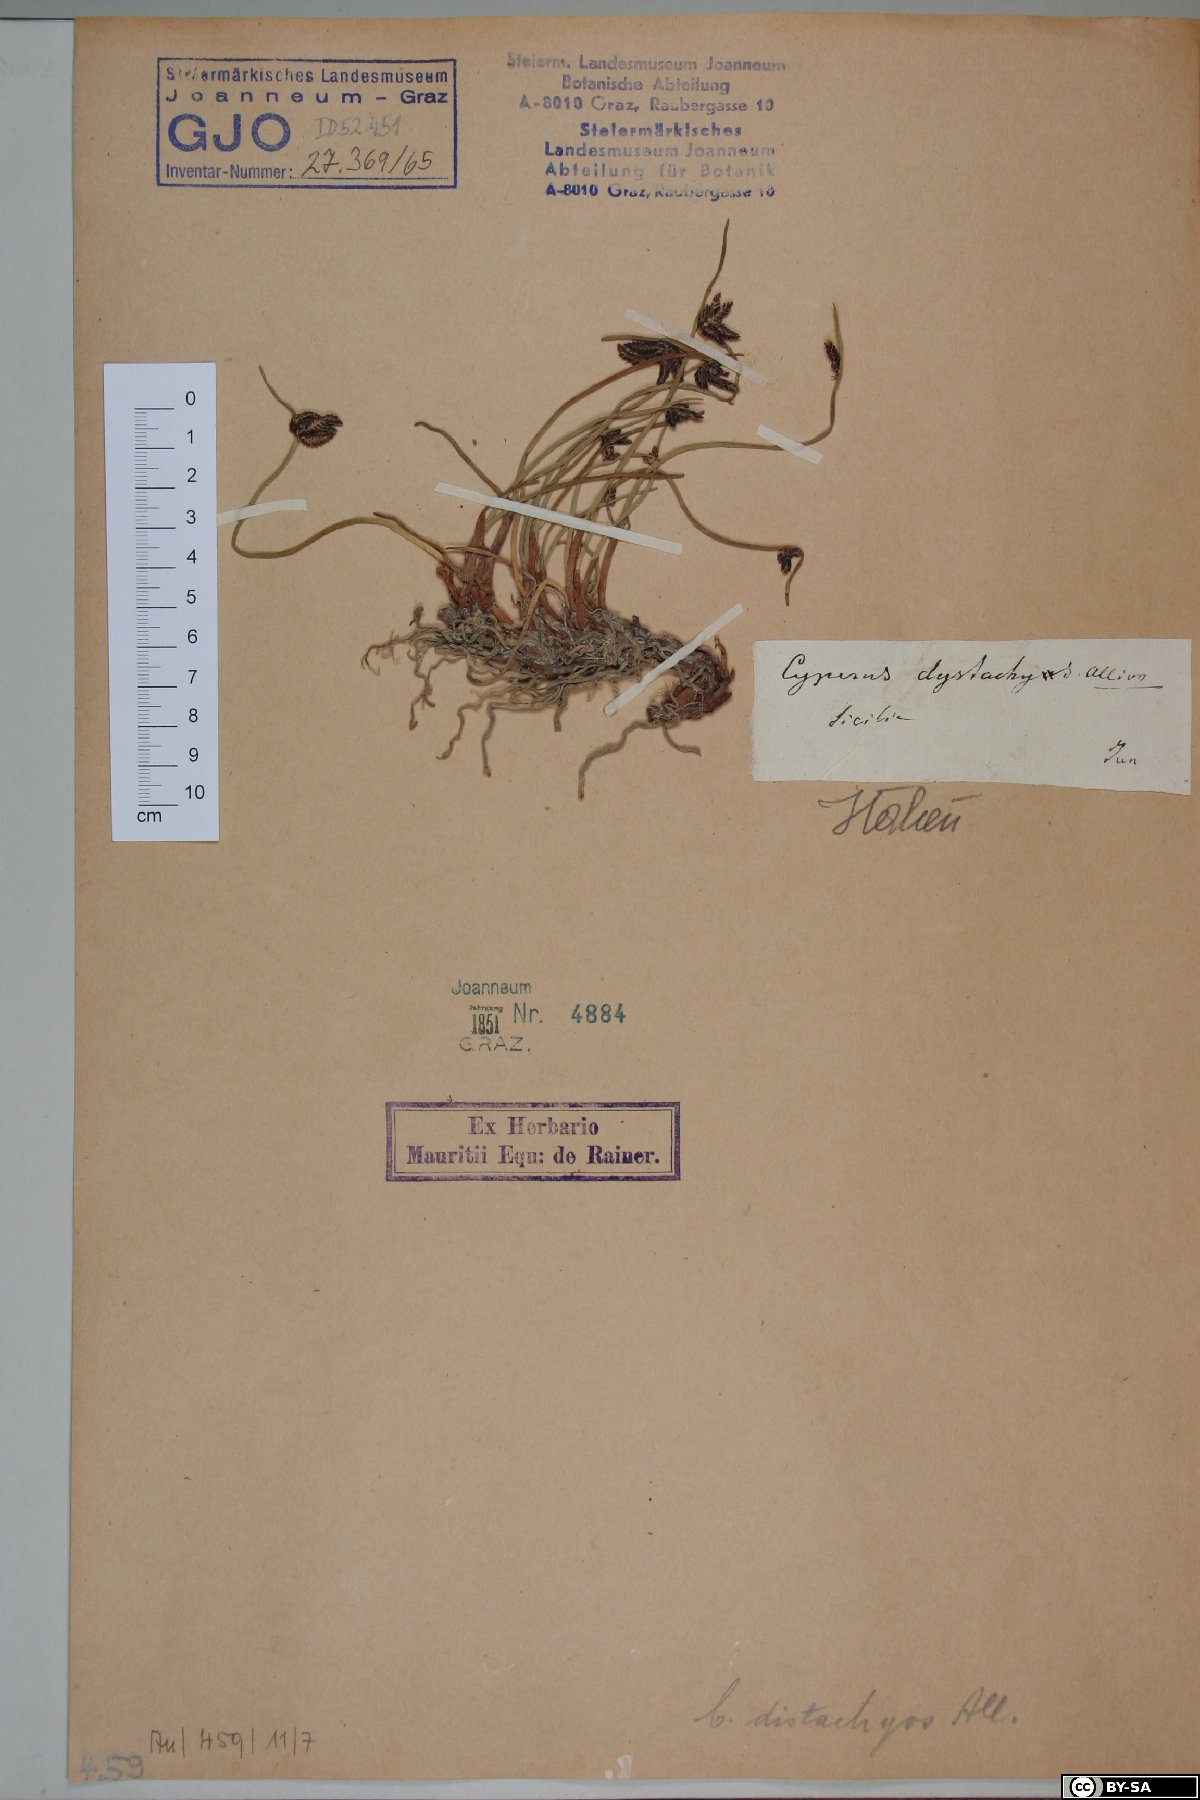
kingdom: Plantae
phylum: Tracheophyta
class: Liliopsida
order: Poales
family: Cyperaceae
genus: Cyperus
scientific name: Cyperus laevigatus
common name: Smooth flat sedge
